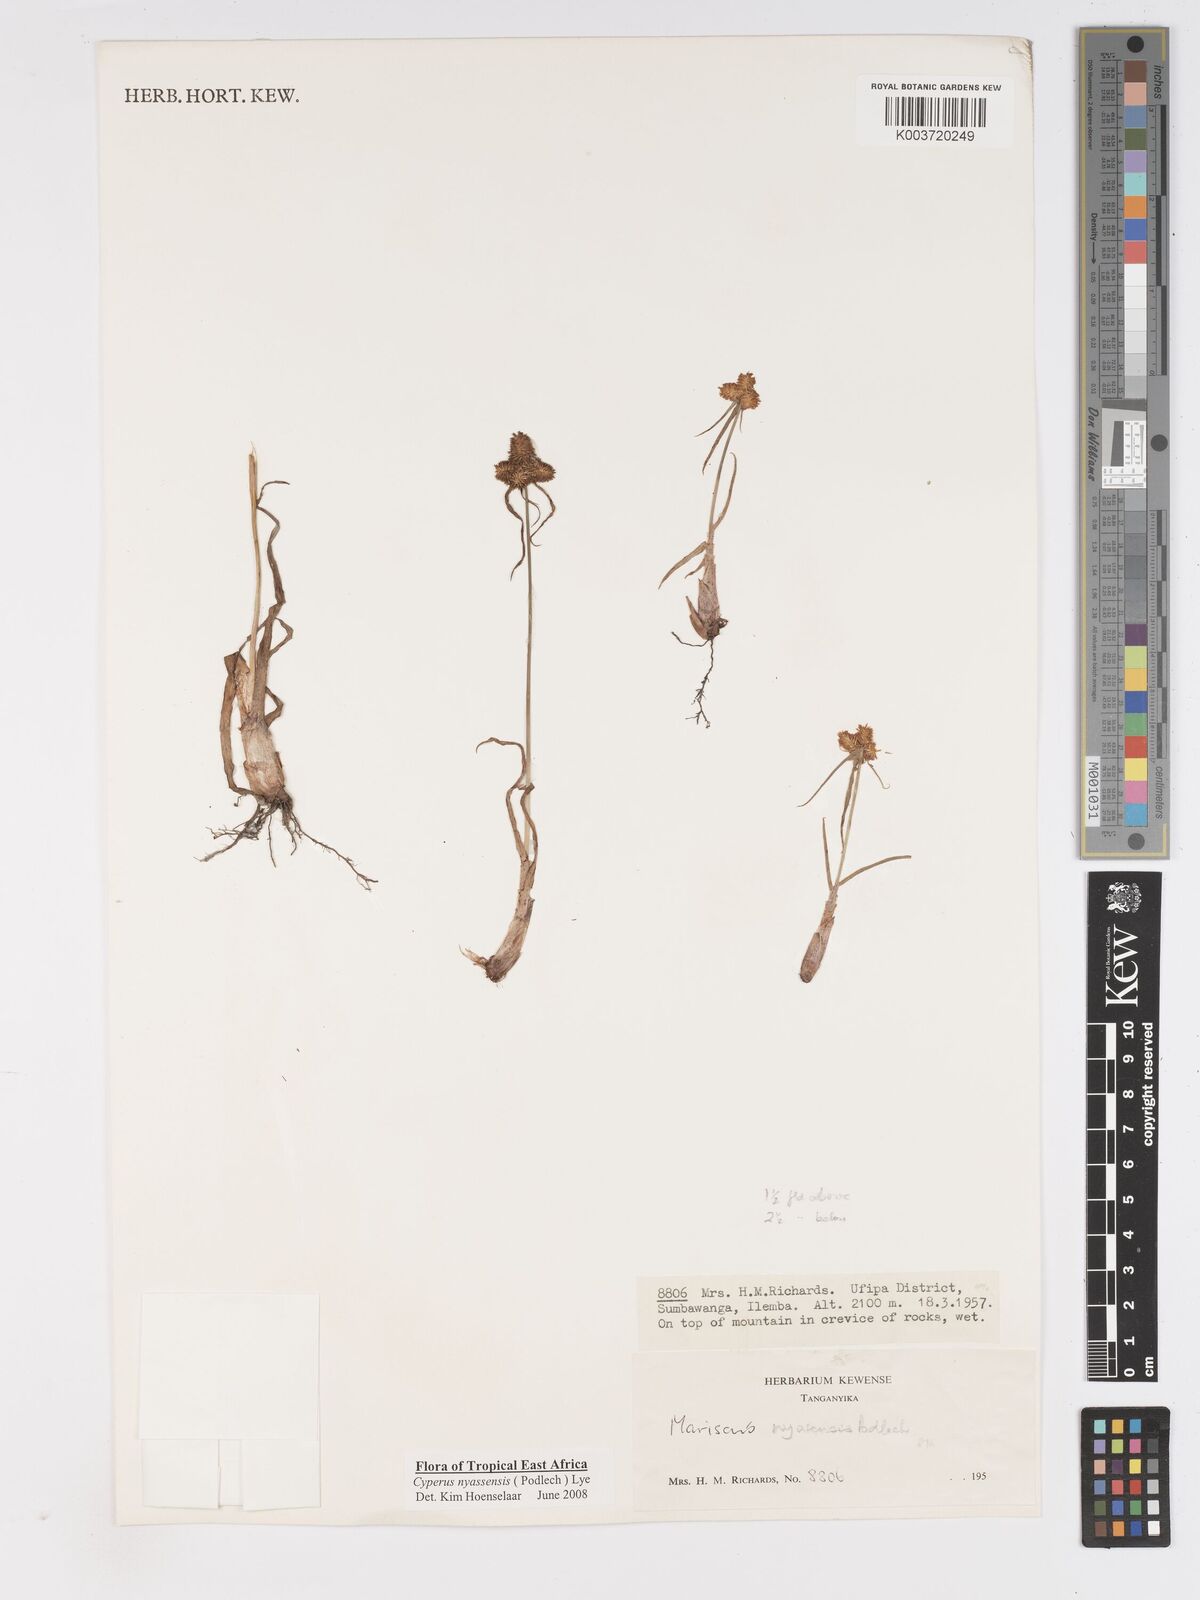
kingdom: Plantae
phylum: Tracheophyta
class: Liliopsida
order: Poales
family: Cyperaceae
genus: Cyperus
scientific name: Cyperus nyasensis
